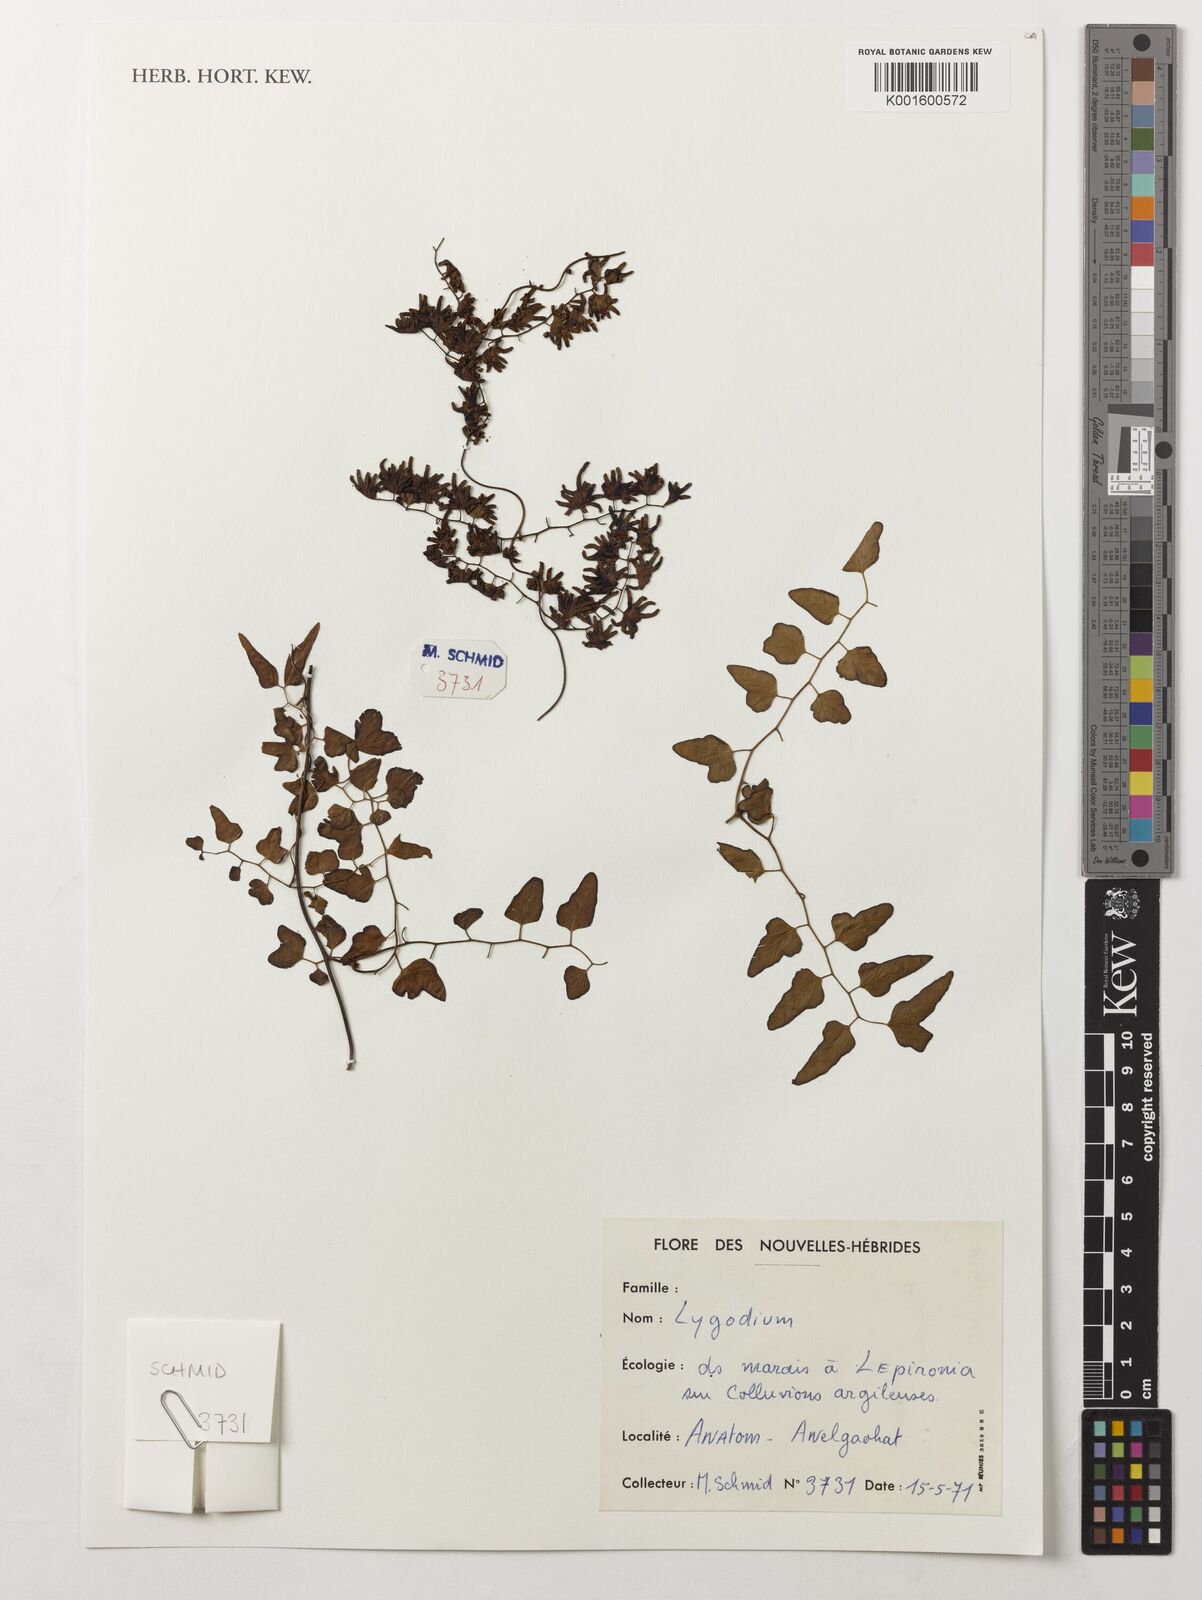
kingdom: Plantae
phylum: Tracheophyta
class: Polypodiopsida
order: Schizaeales
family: Lygodiaceae
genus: Lygodium
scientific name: Lygodium
